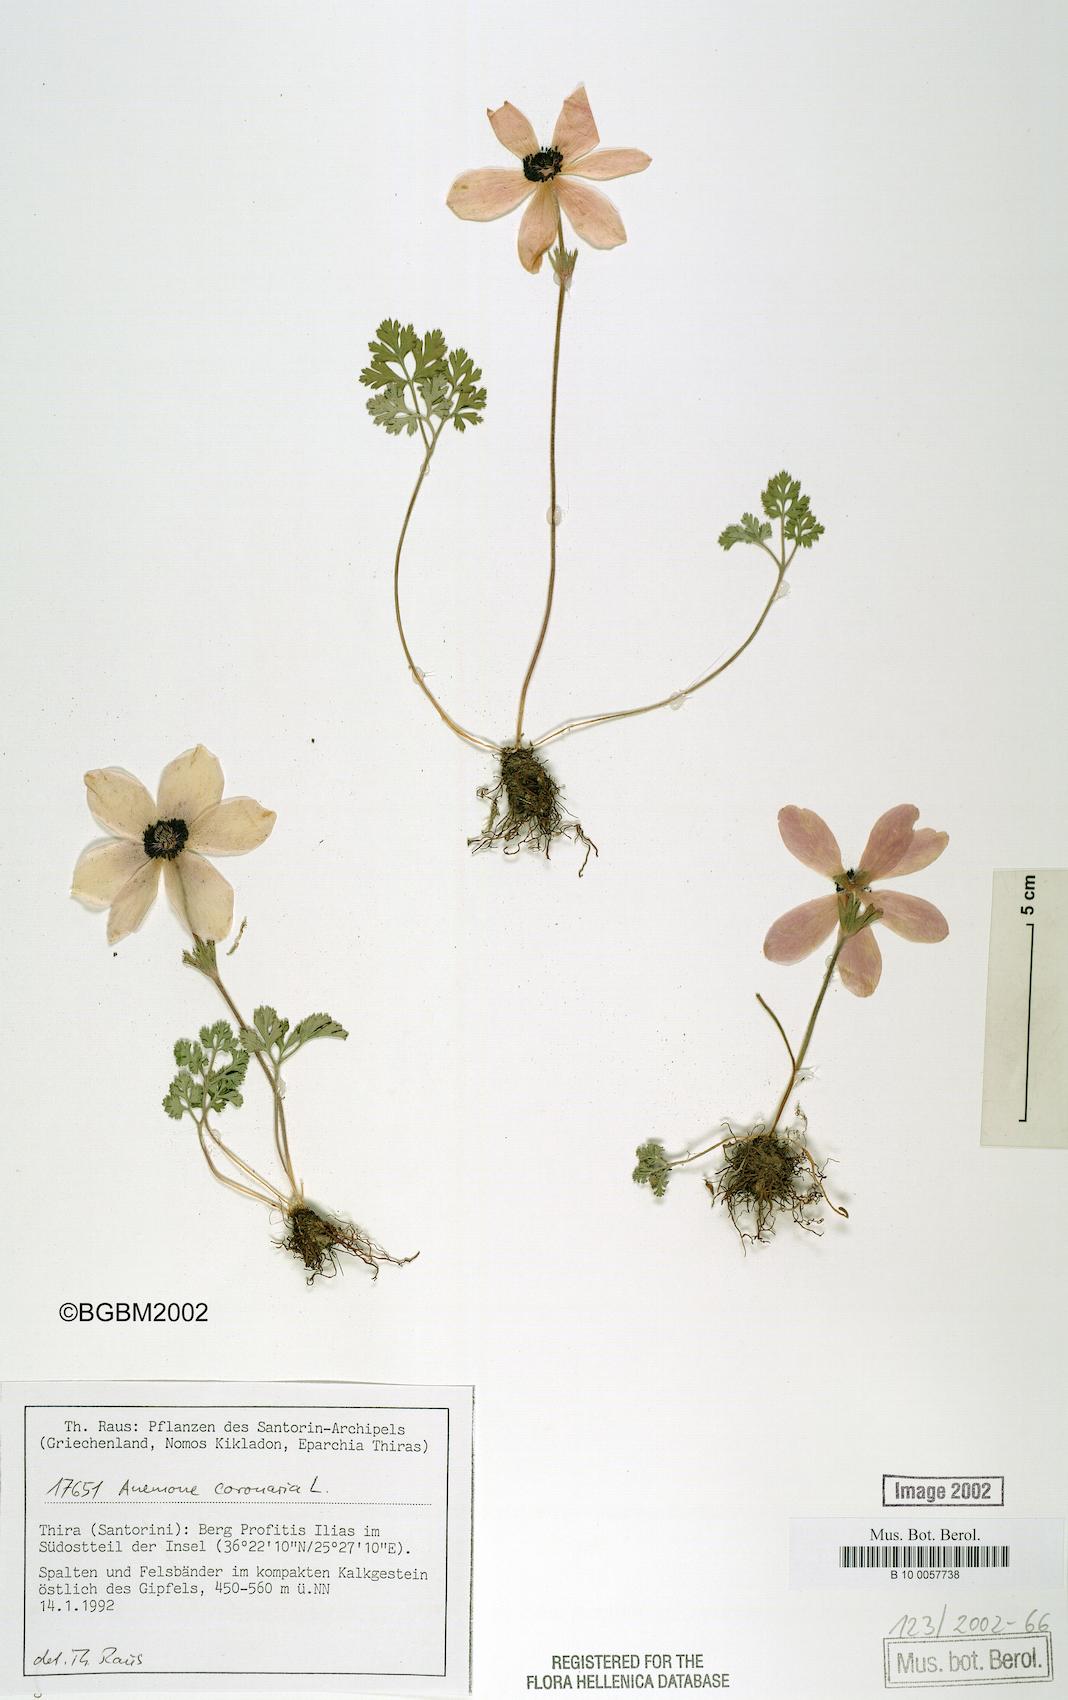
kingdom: Plantae
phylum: Tracheophyta
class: Magnoliopsida
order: Ranunculales
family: Ranunculaceae
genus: Anemone
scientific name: Anemone coronaria
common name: Poppy anemone
